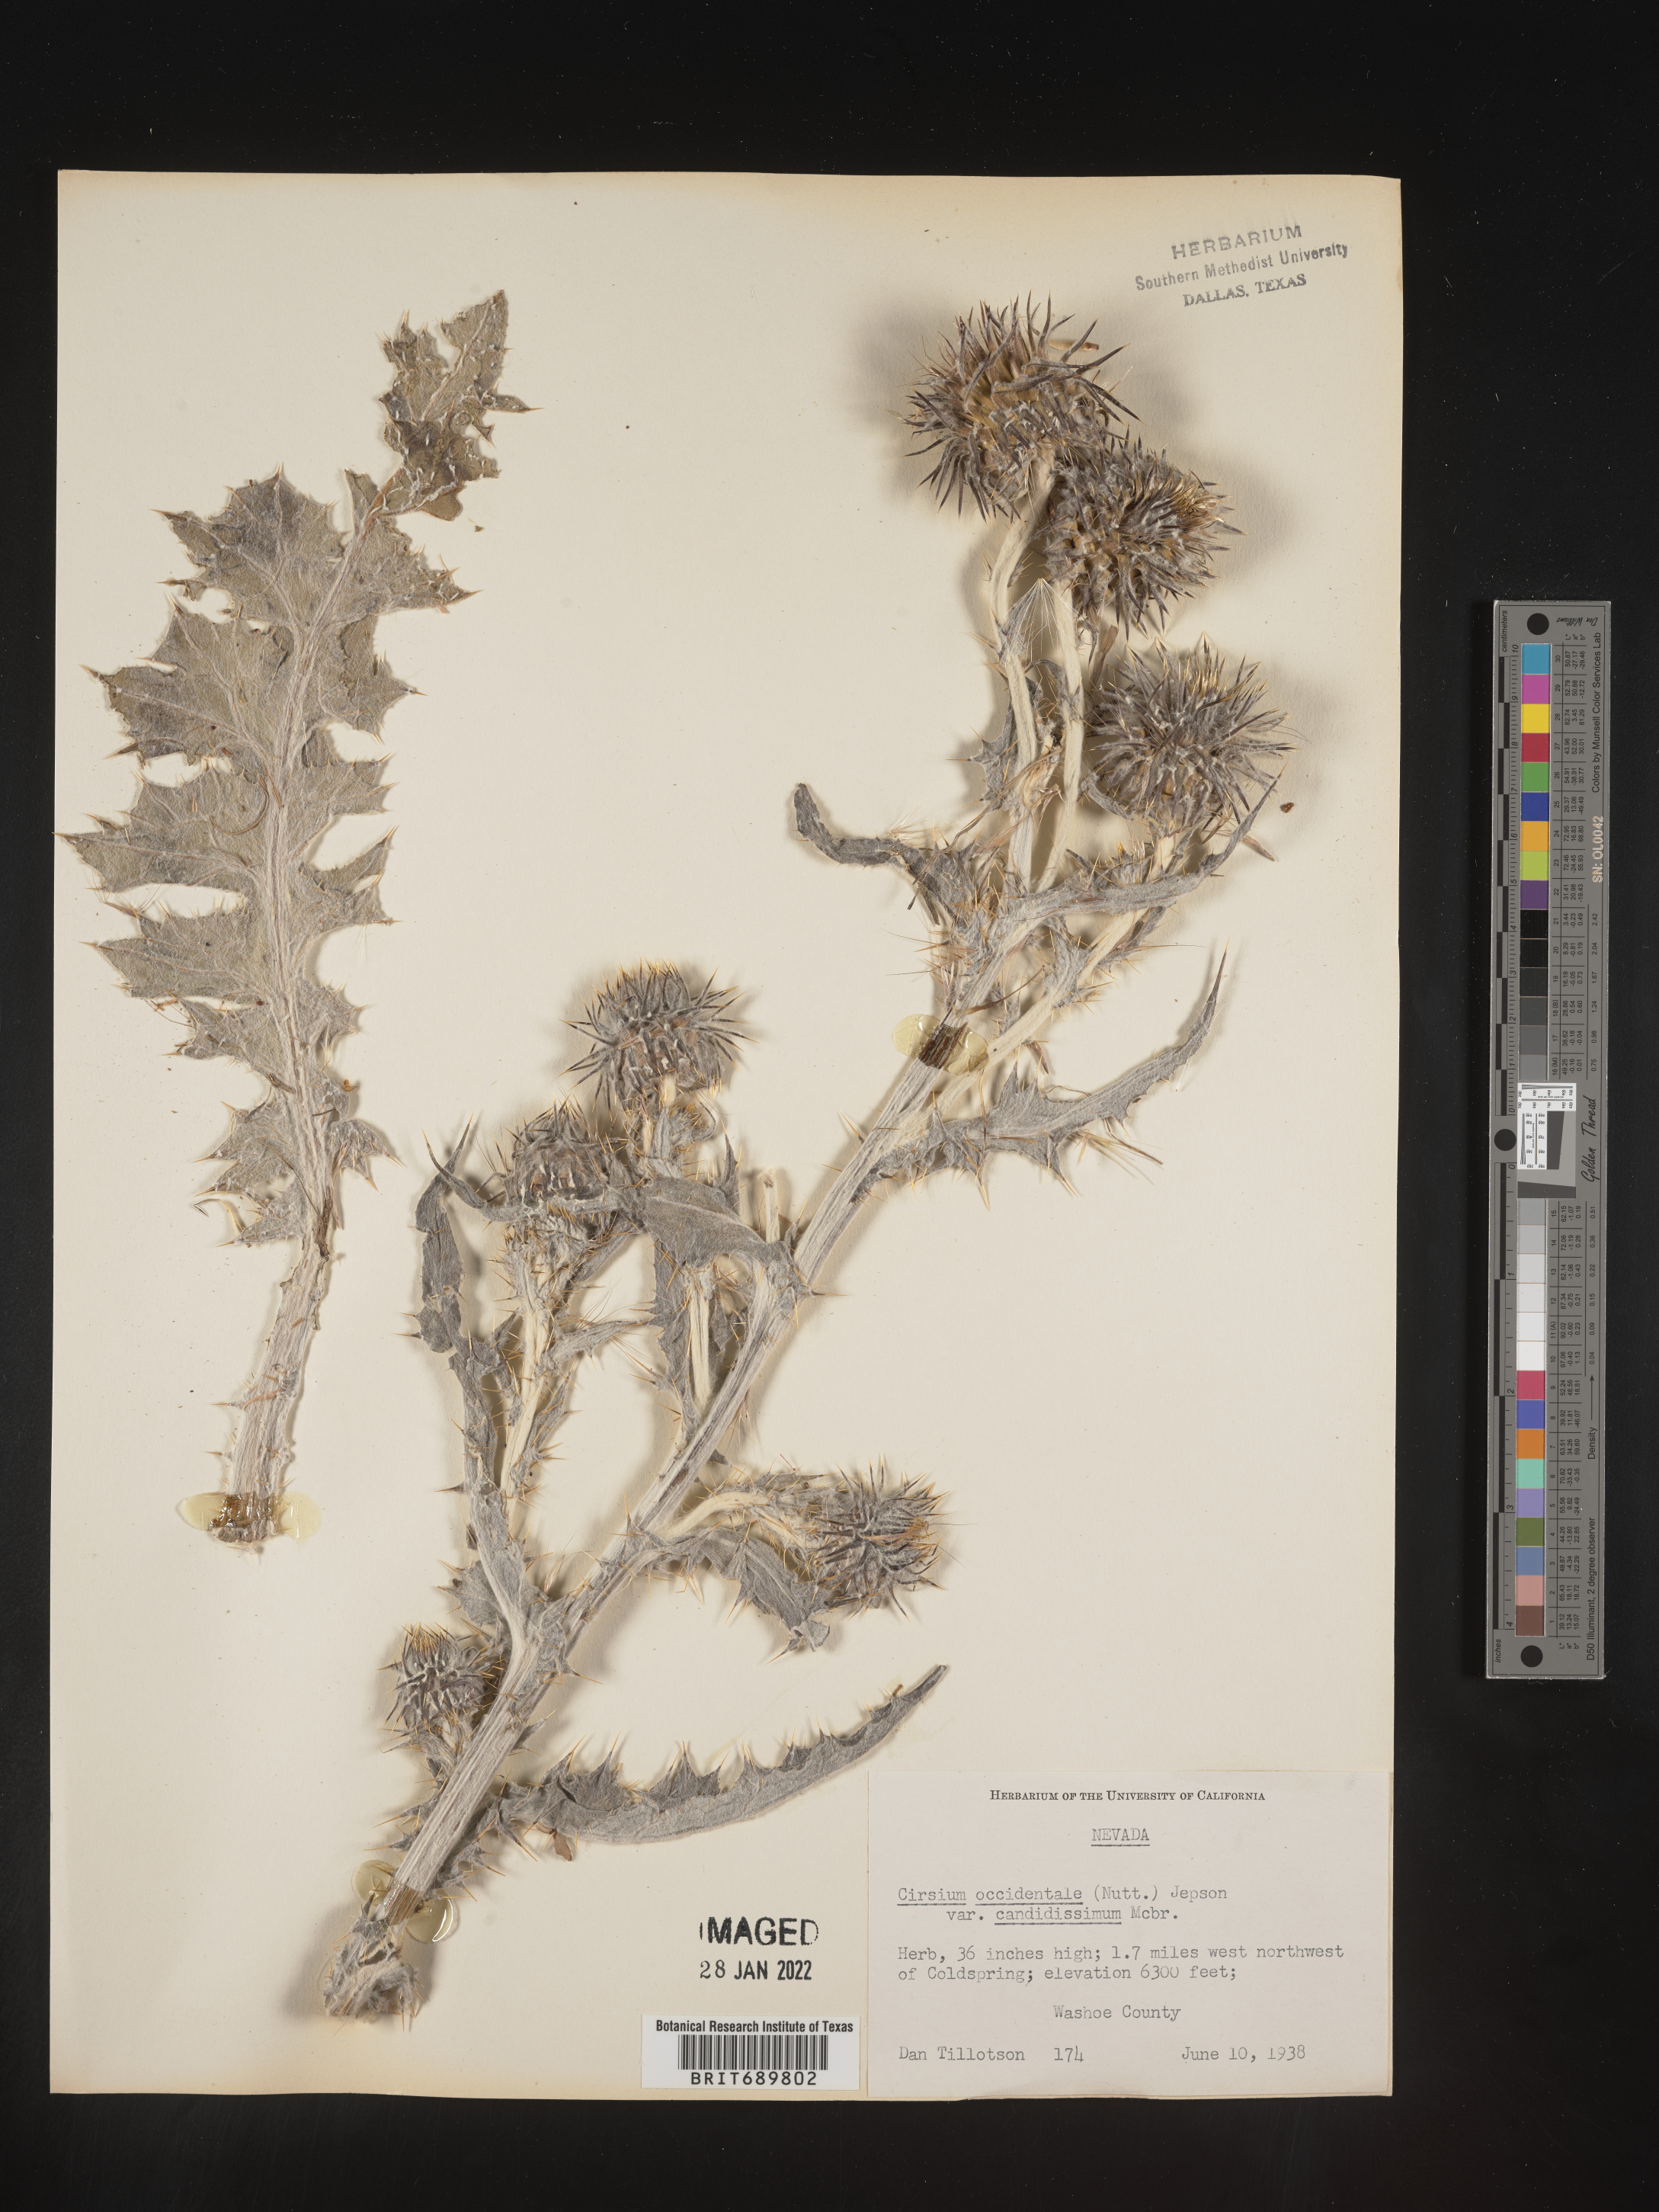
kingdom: Plantae
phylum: Tracheophyta
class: Magnoliopsida
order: Asterales
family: Asteraceae
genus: Cirsium
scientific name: Cirsium occidentale
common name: Western thistle
